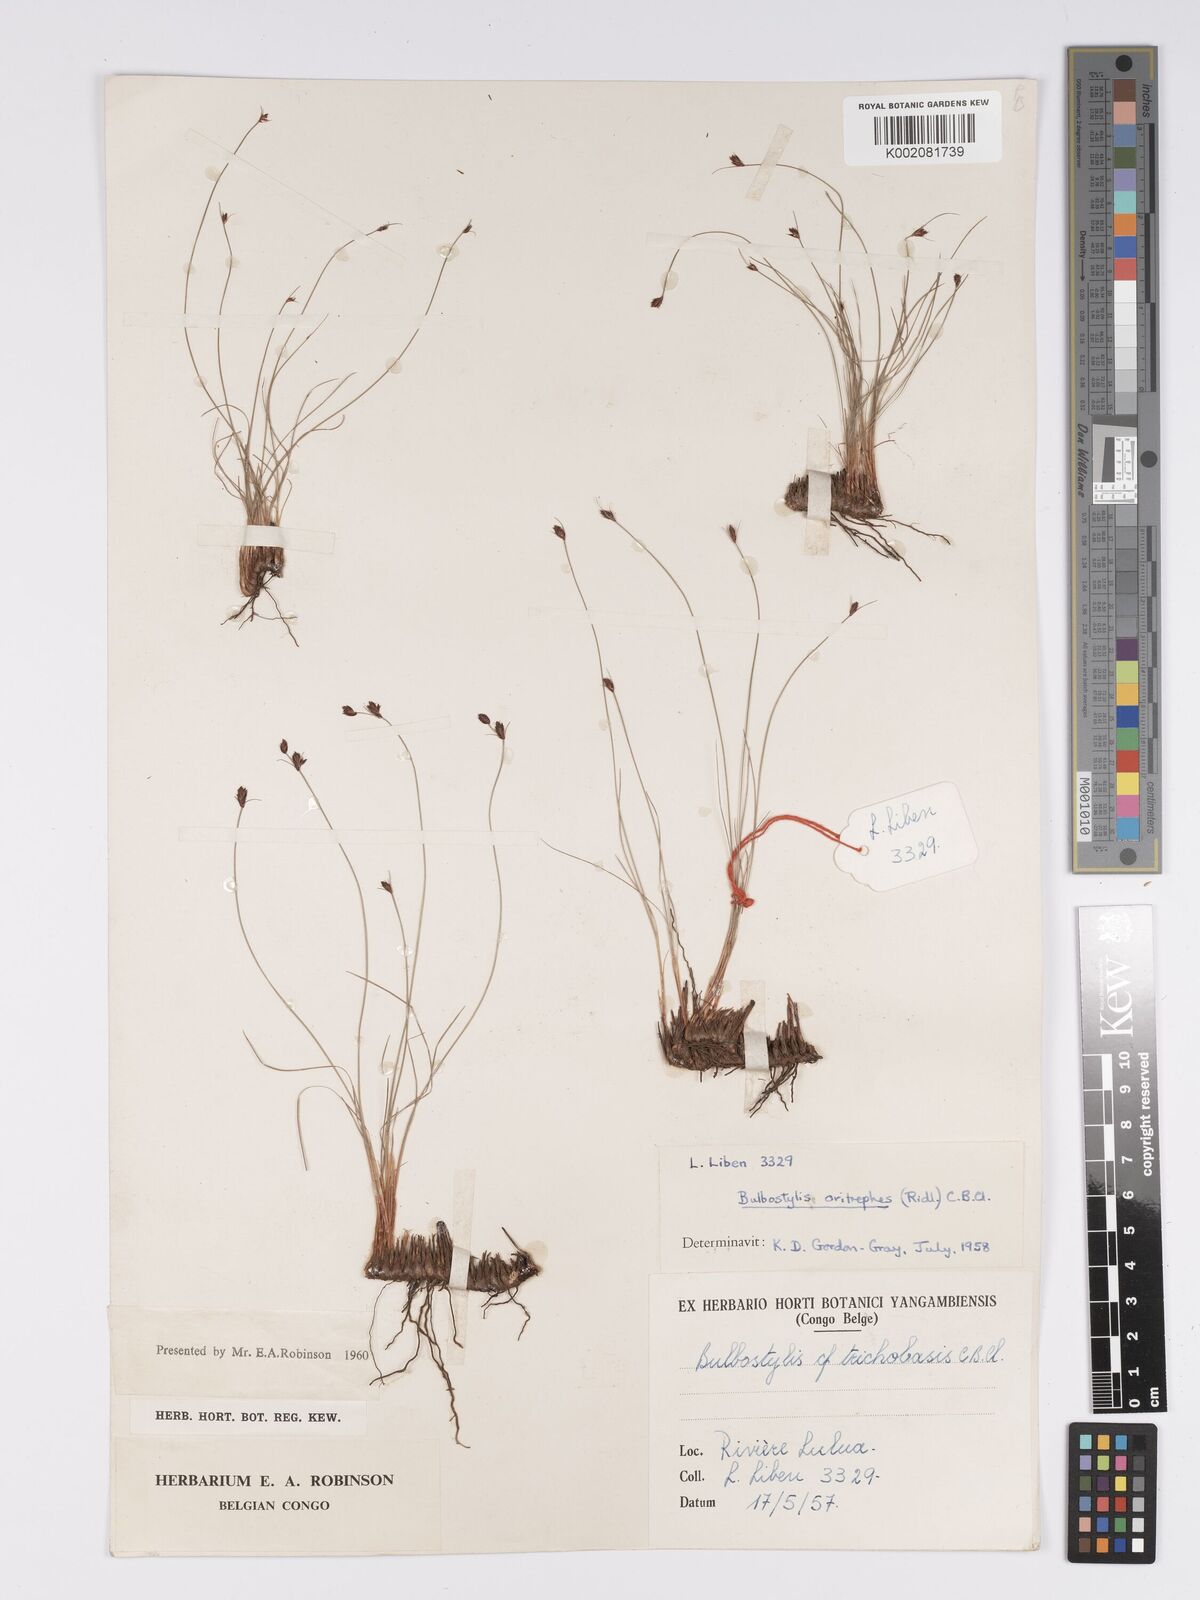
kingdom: Plantae
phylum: Tracheophyta
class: Liliopsida
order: Poales
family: Cyperaceae
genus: Bulbostylis
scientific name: Bulbostylis oritrephes
